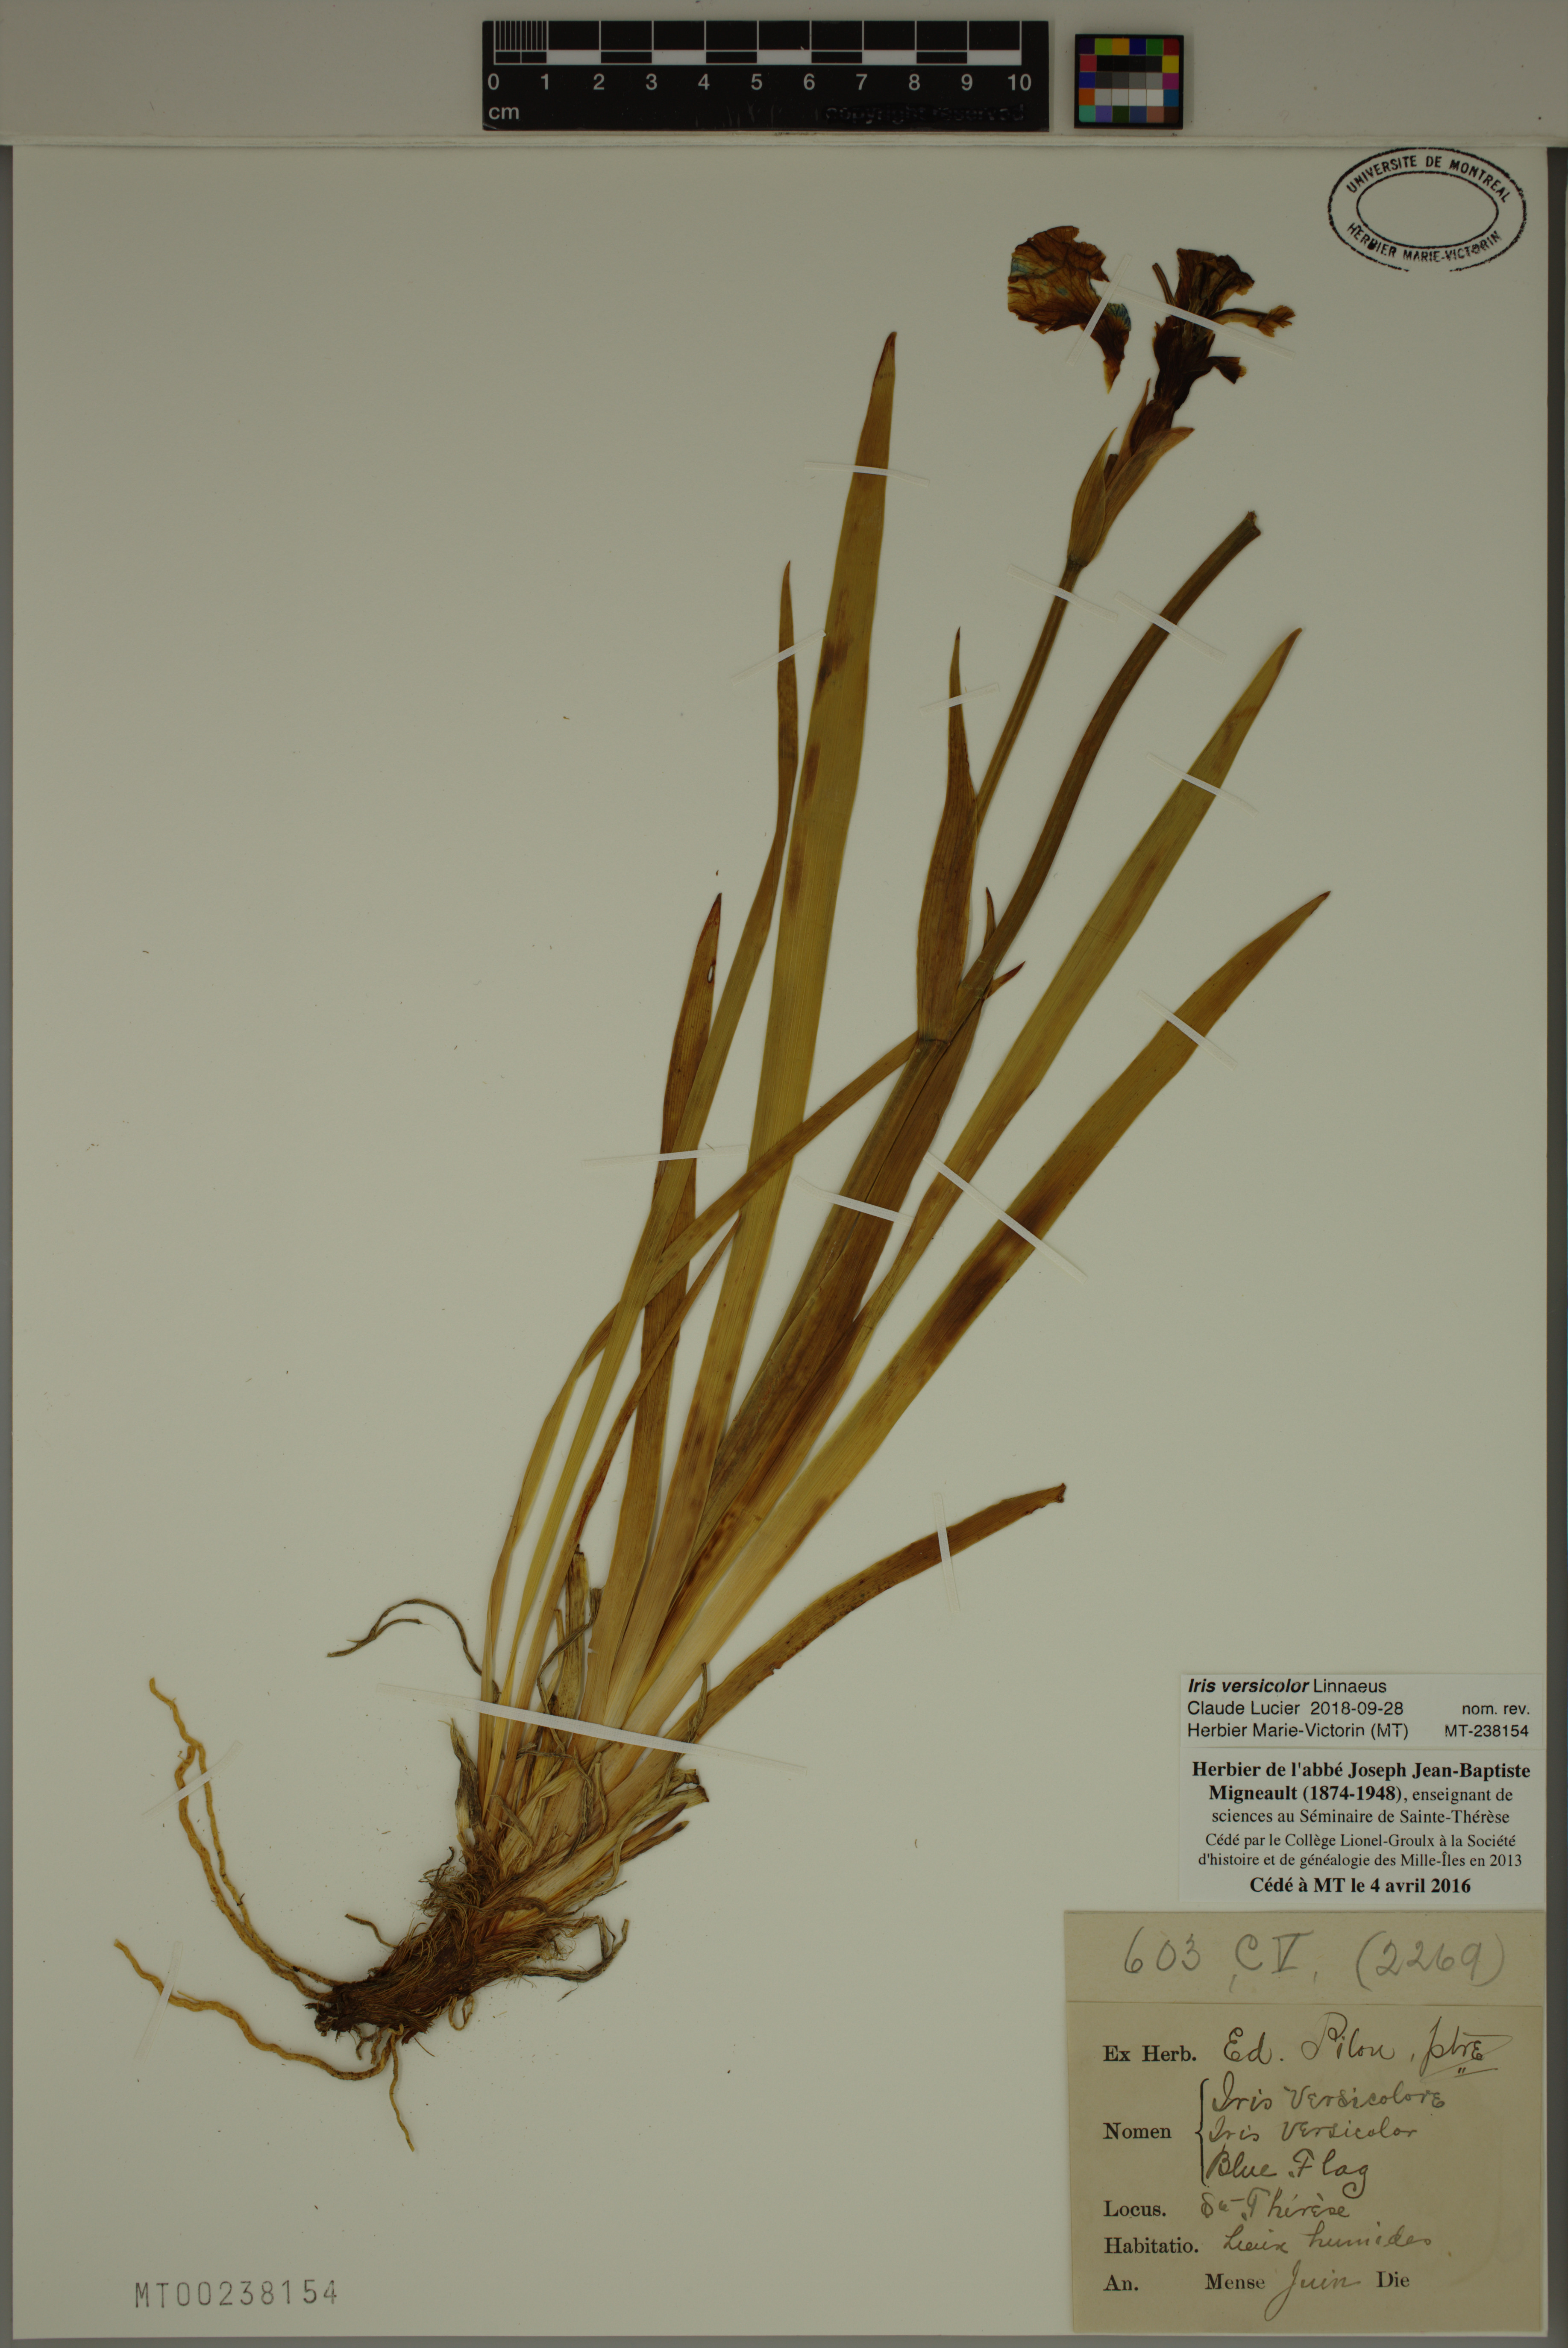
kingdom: Plantae
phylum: Tracheophyta
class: Liliopsida
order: Asparagales
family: Iridaceae
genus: Iris
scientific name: Iris versicolor
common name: Purple iris
